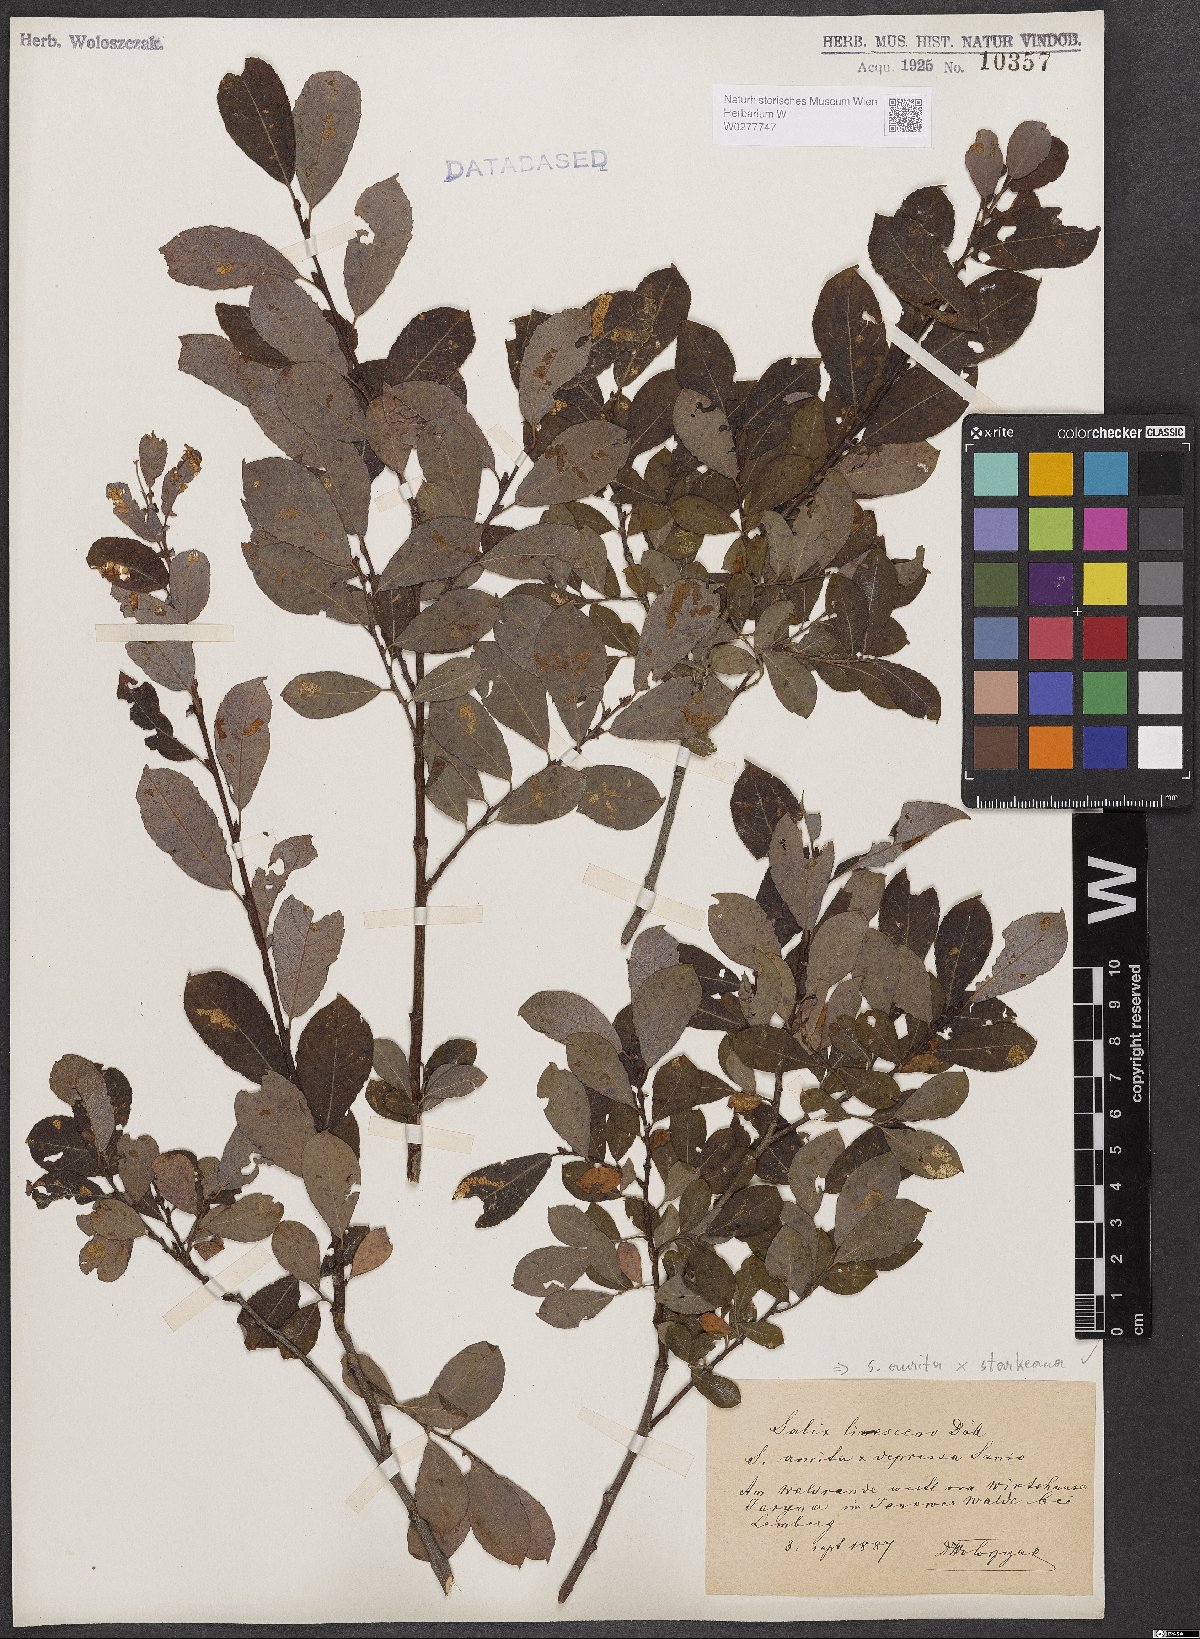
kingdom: Plantae
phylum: Tracheophyta
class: Magnoliopsida
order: Malpighiales
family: Salicaceae
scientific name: Salicaceae
